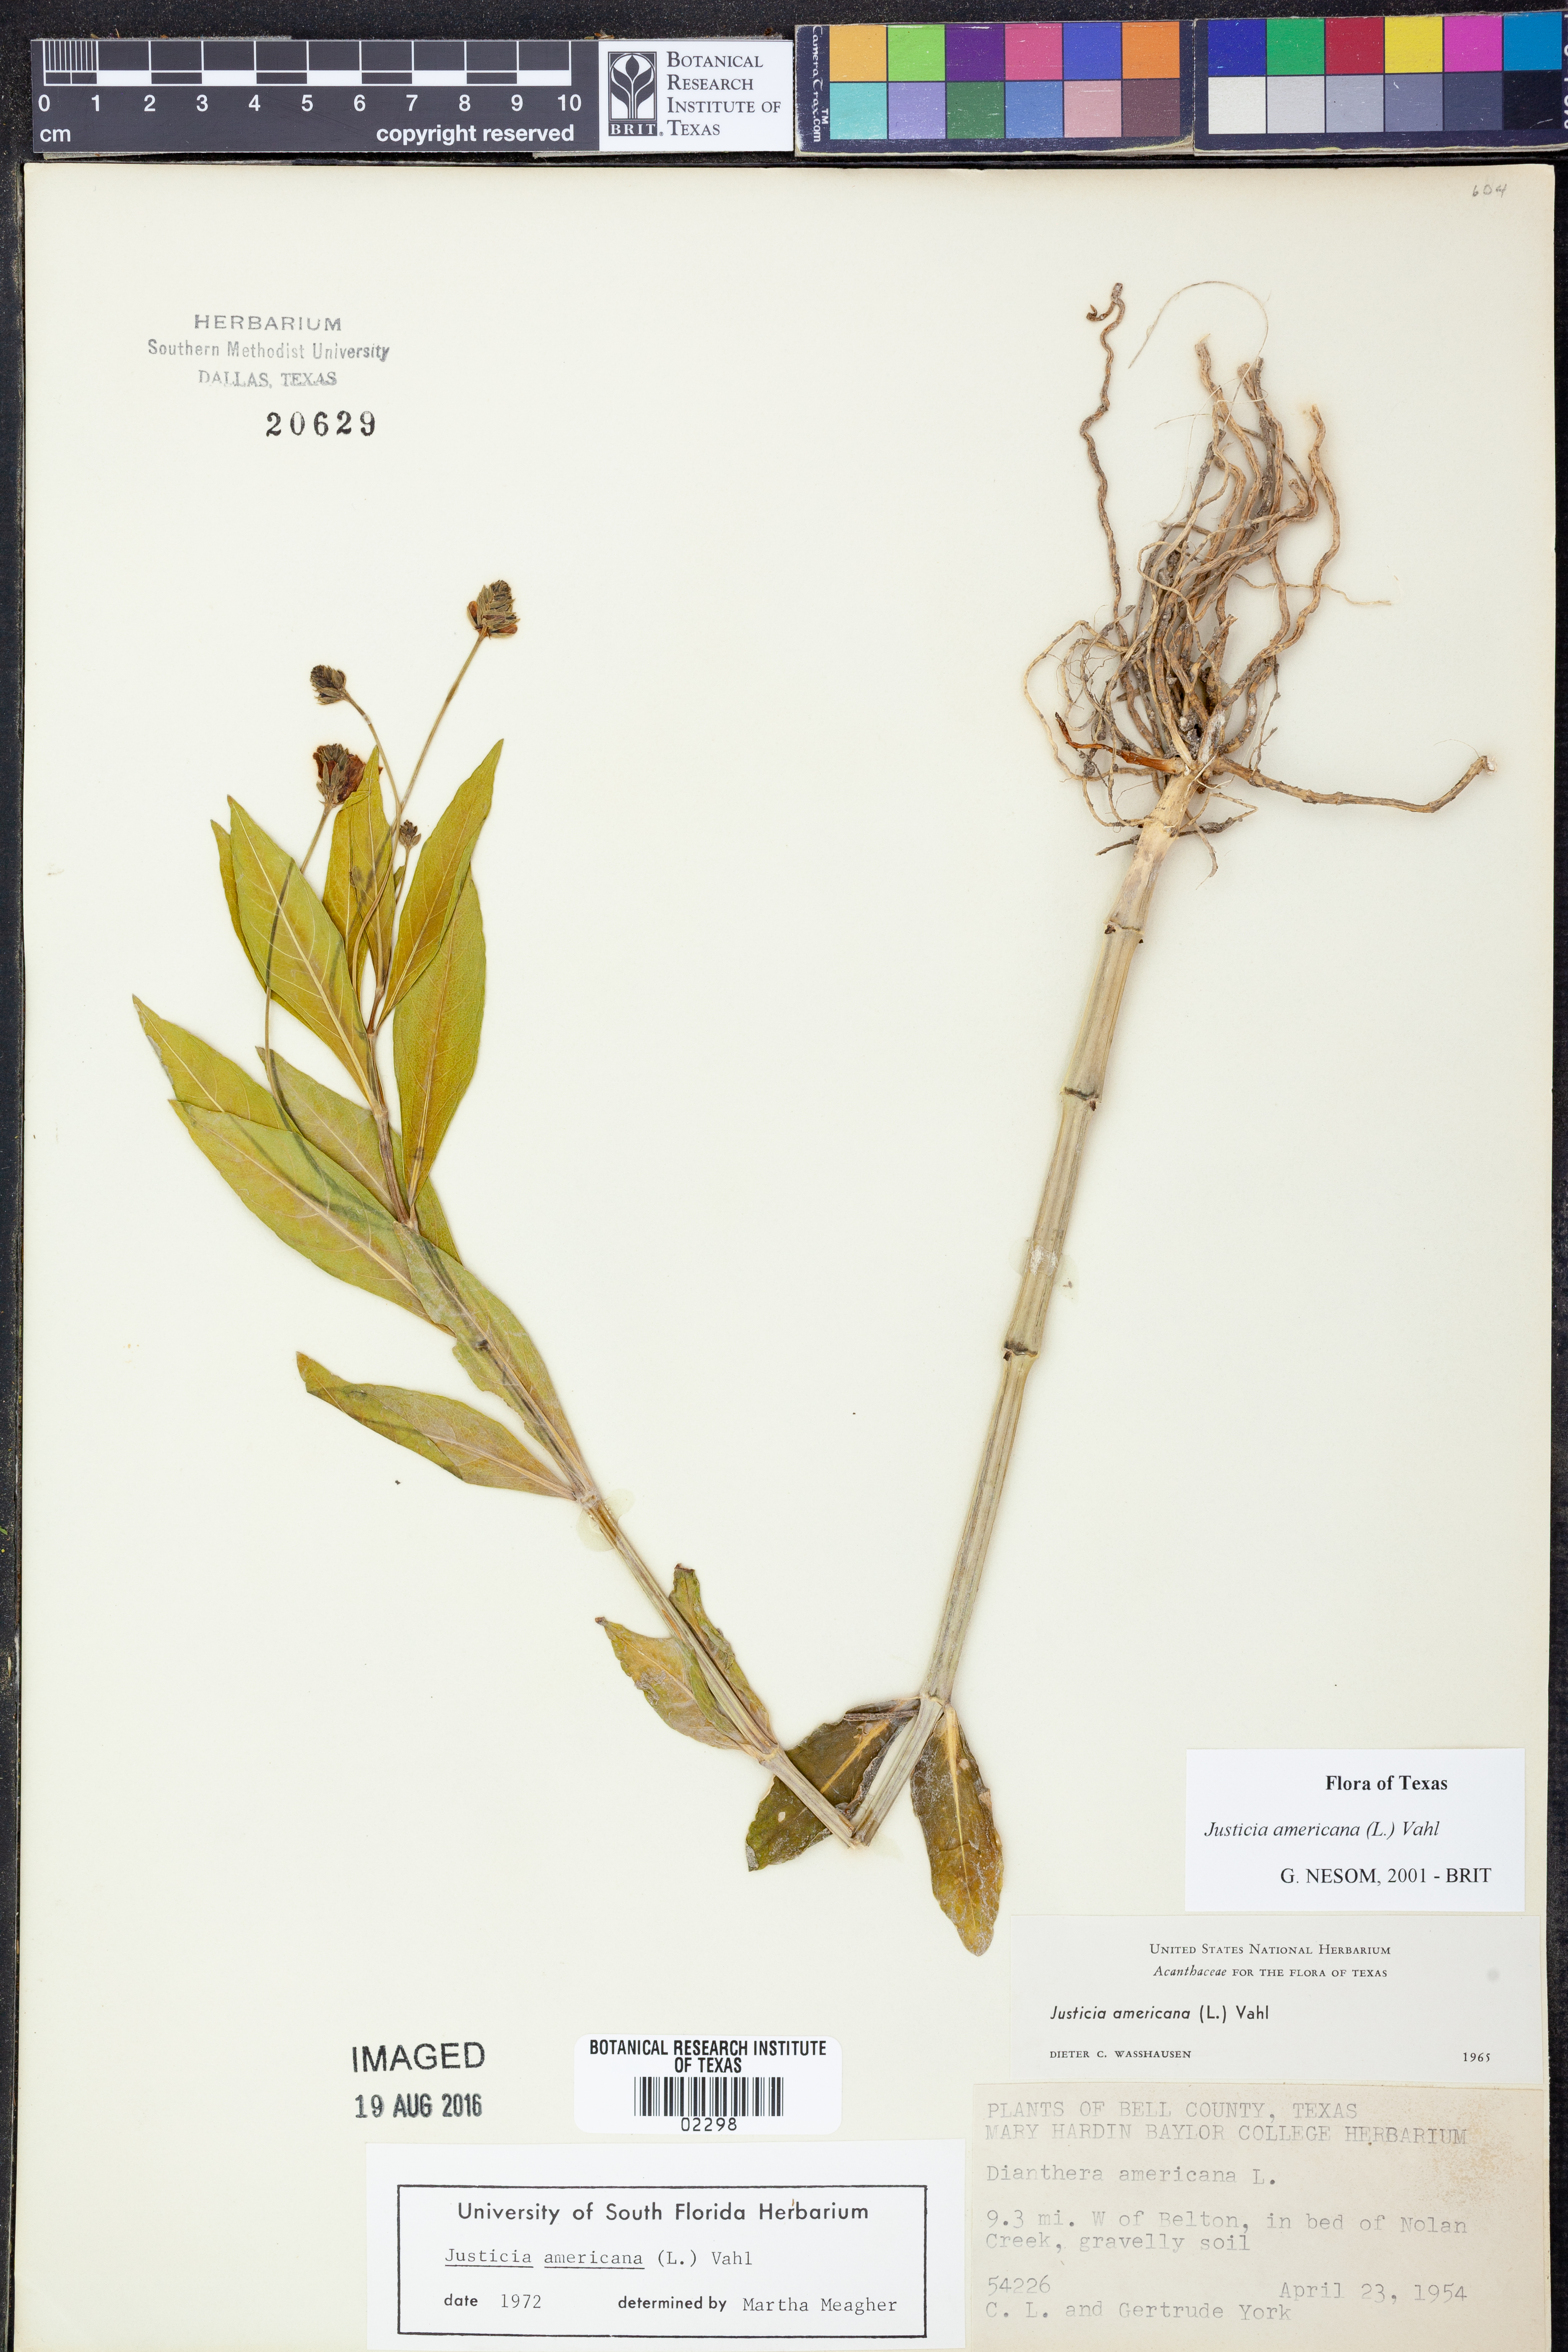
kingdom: Plantae
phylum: Tracheophyta
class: Magnoliopsida
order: Lamiales
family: Acanthaceae
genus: Dianthera
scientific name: Dianthera americana
